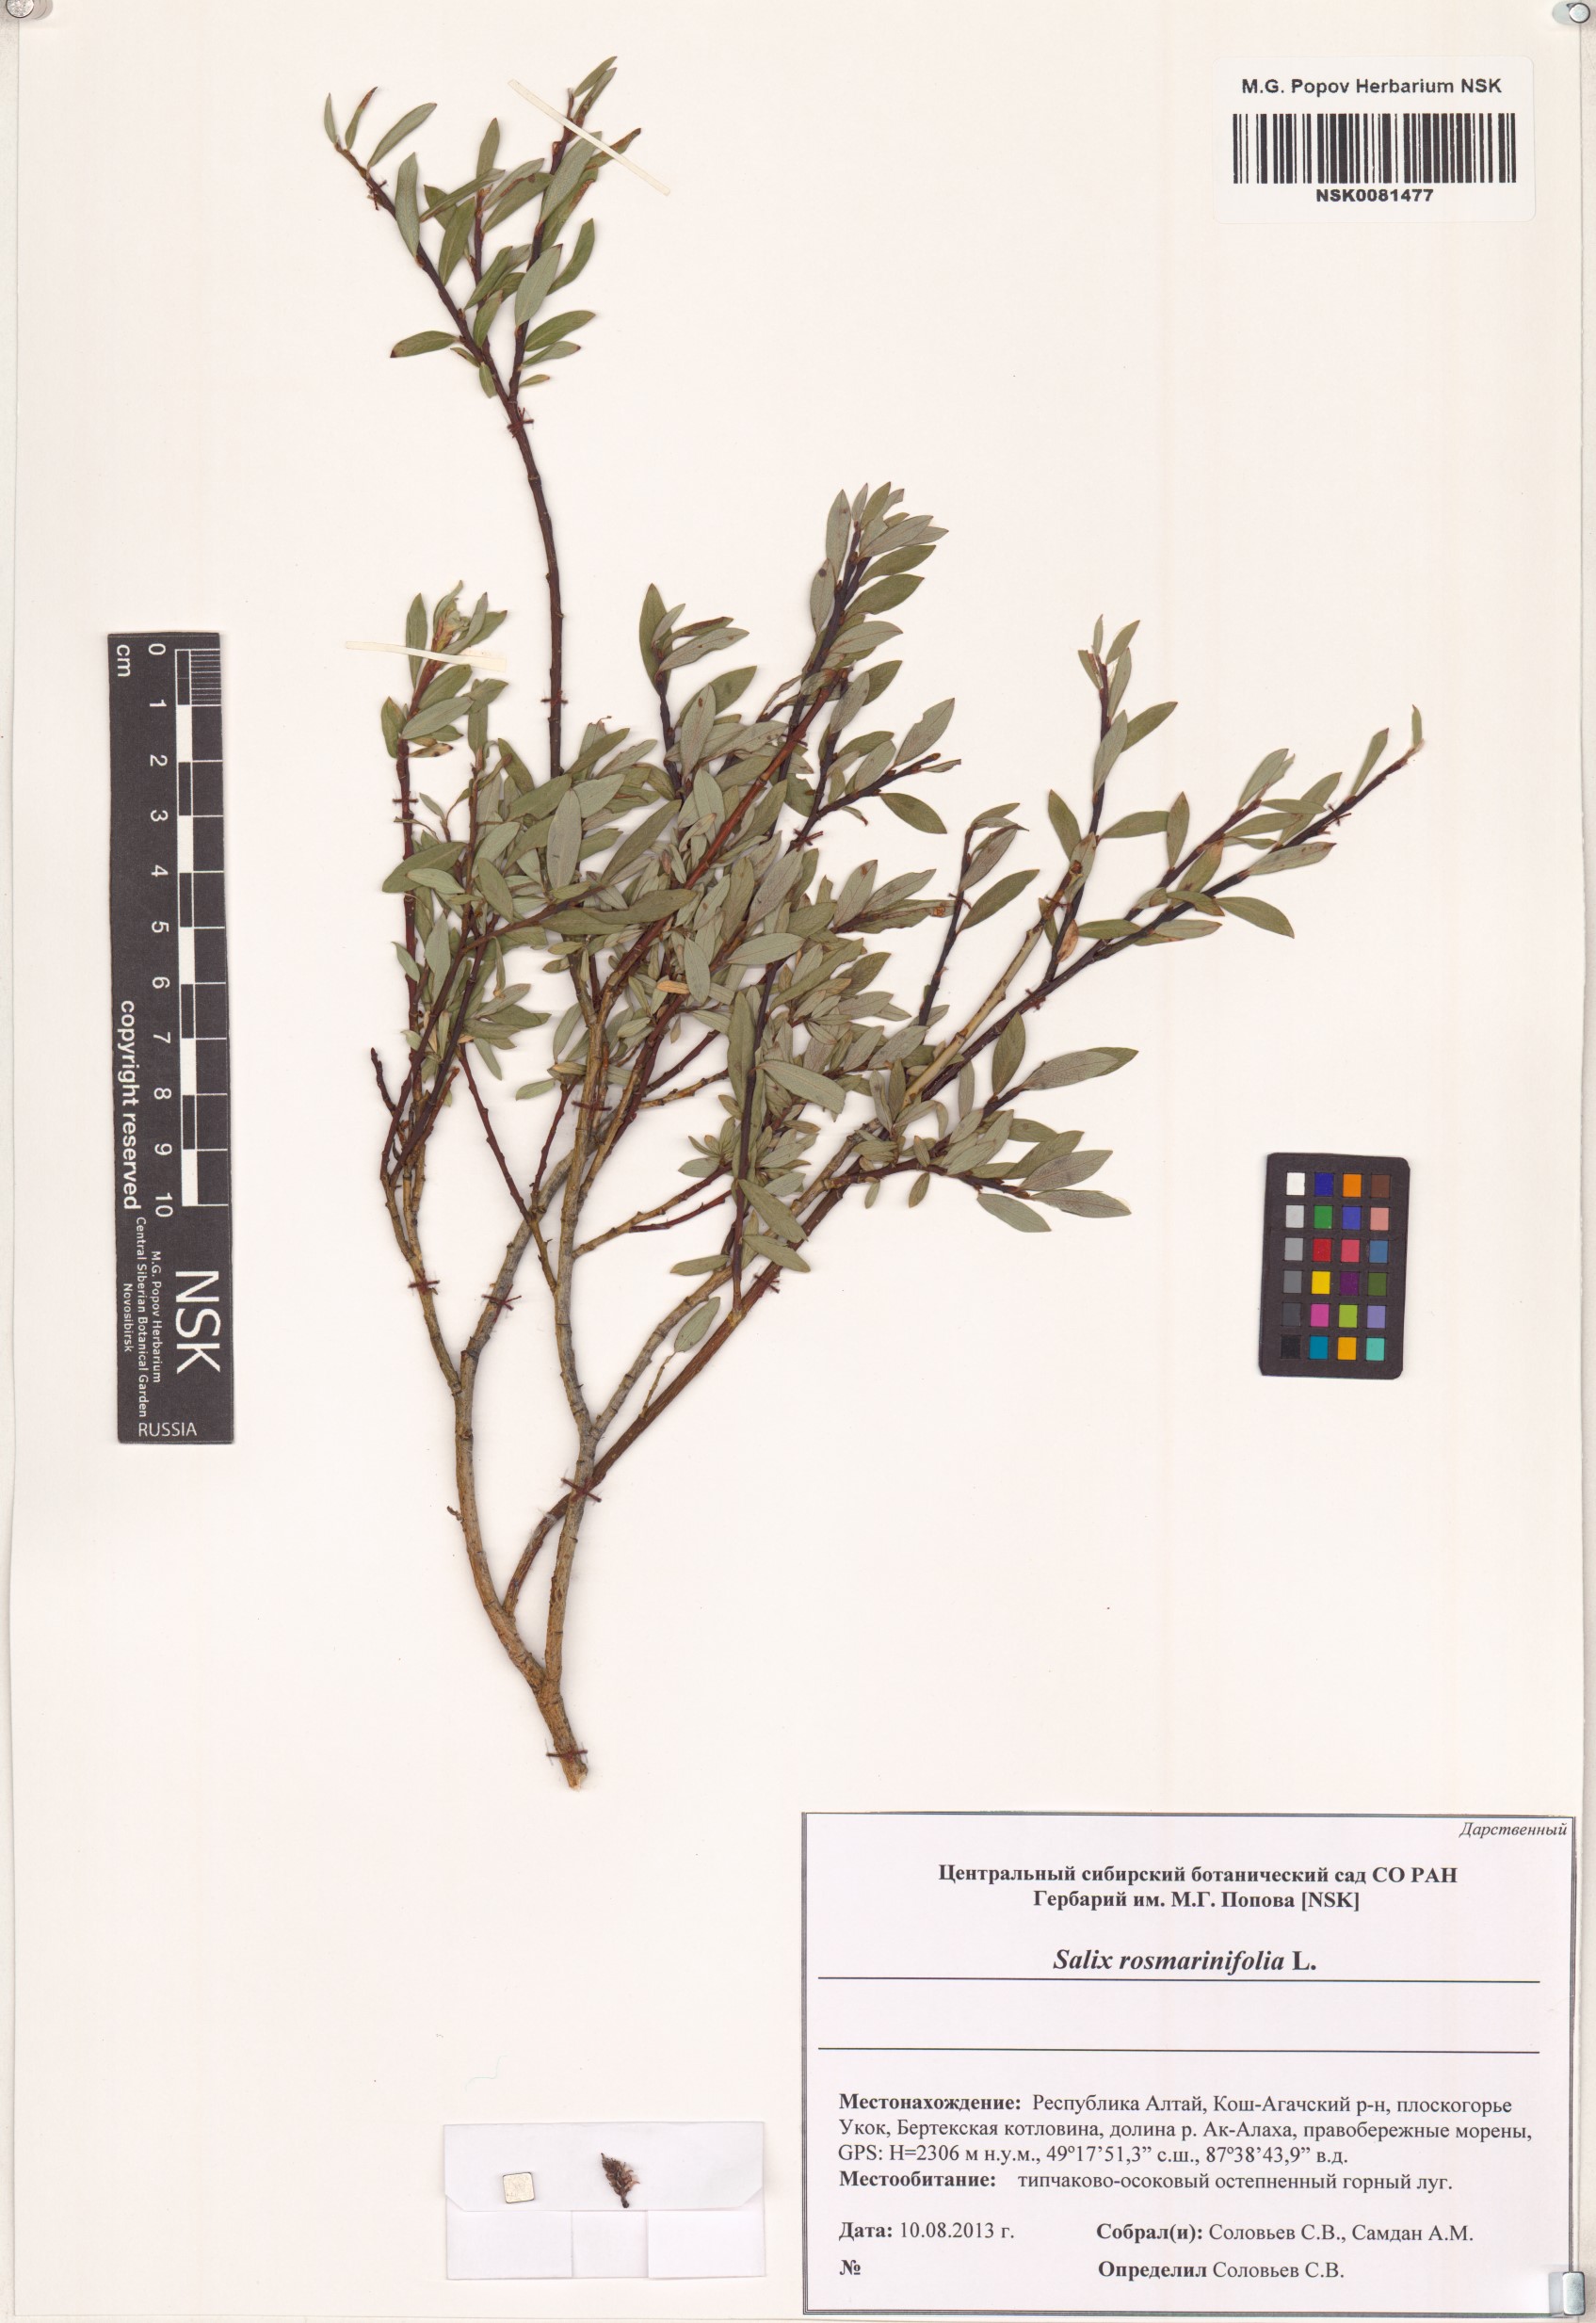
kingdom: Plantae
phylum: Tracheophyta
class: Magnoliopsida
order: Malpighiales
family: Salicaceae
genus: Salix
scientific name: Salix rosmarinifolia
